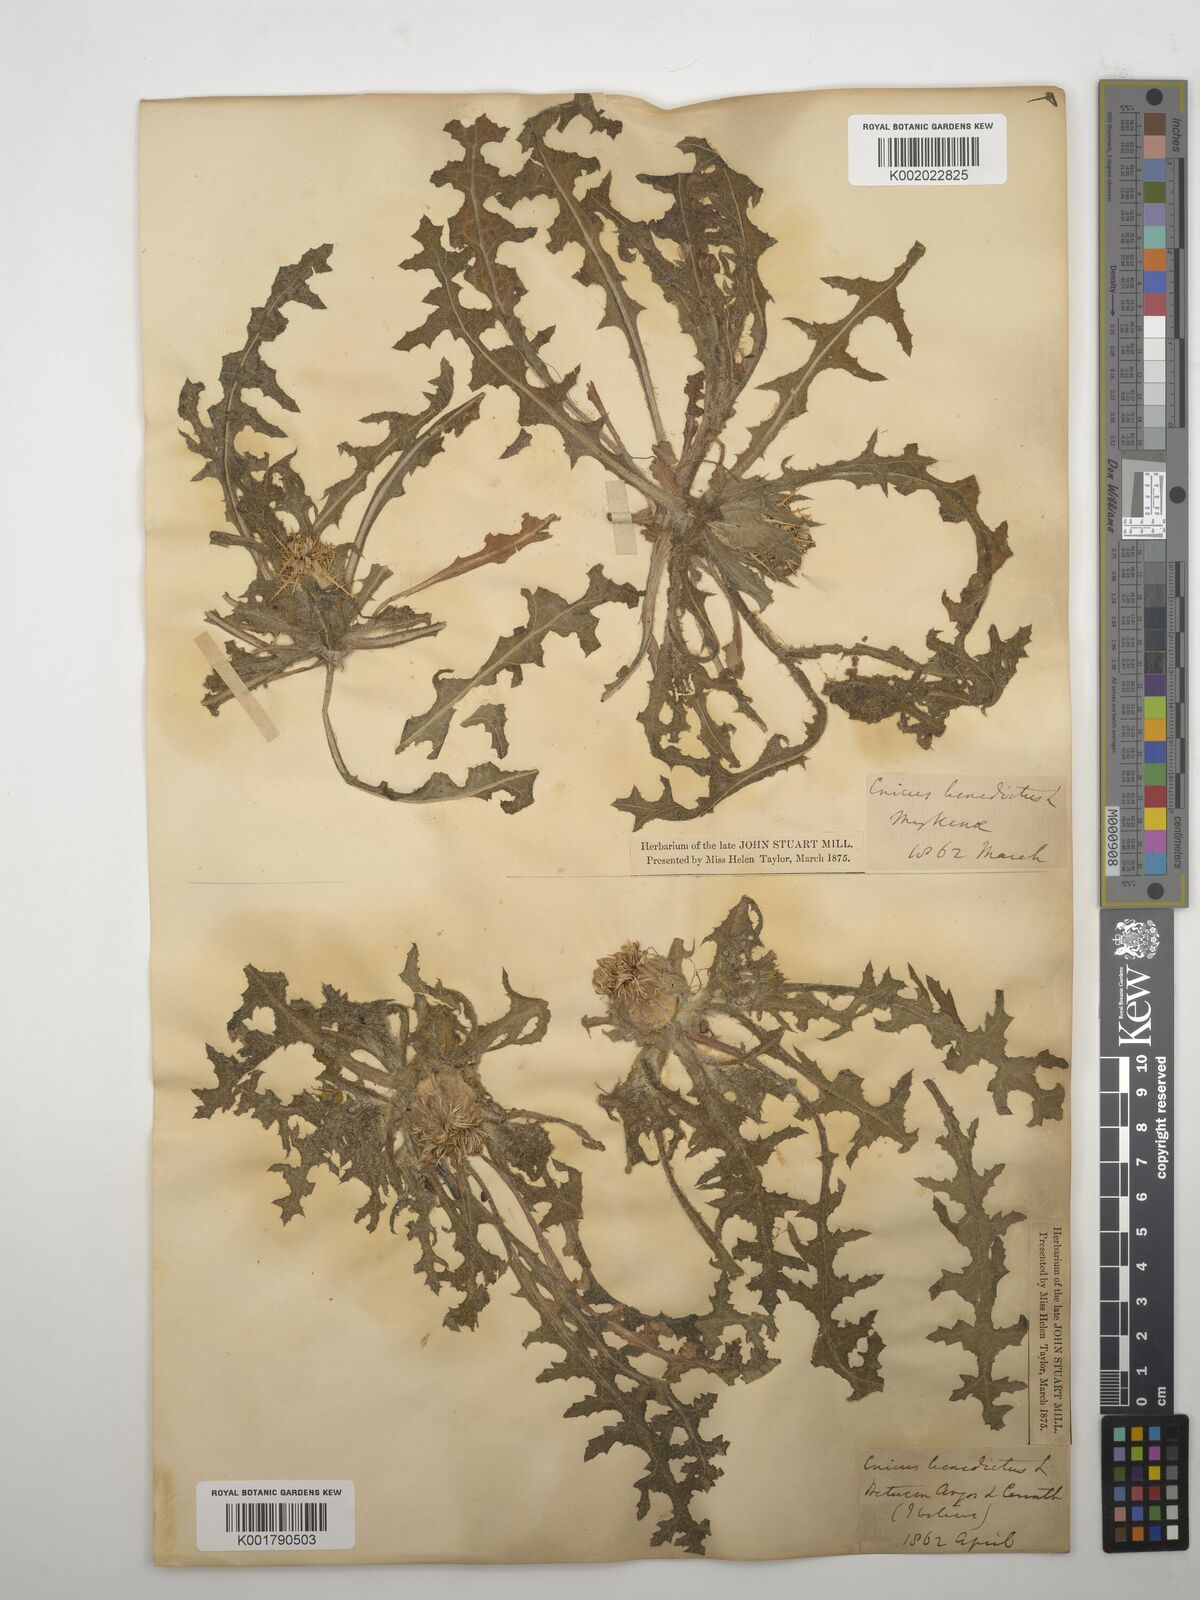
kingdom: Plantae
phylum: Tracheophyta
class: Magnoliopsida
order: Asterales
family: Asteraceae
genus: Centaurea
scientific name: Centaurea benedicta
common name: Blessed thistle
